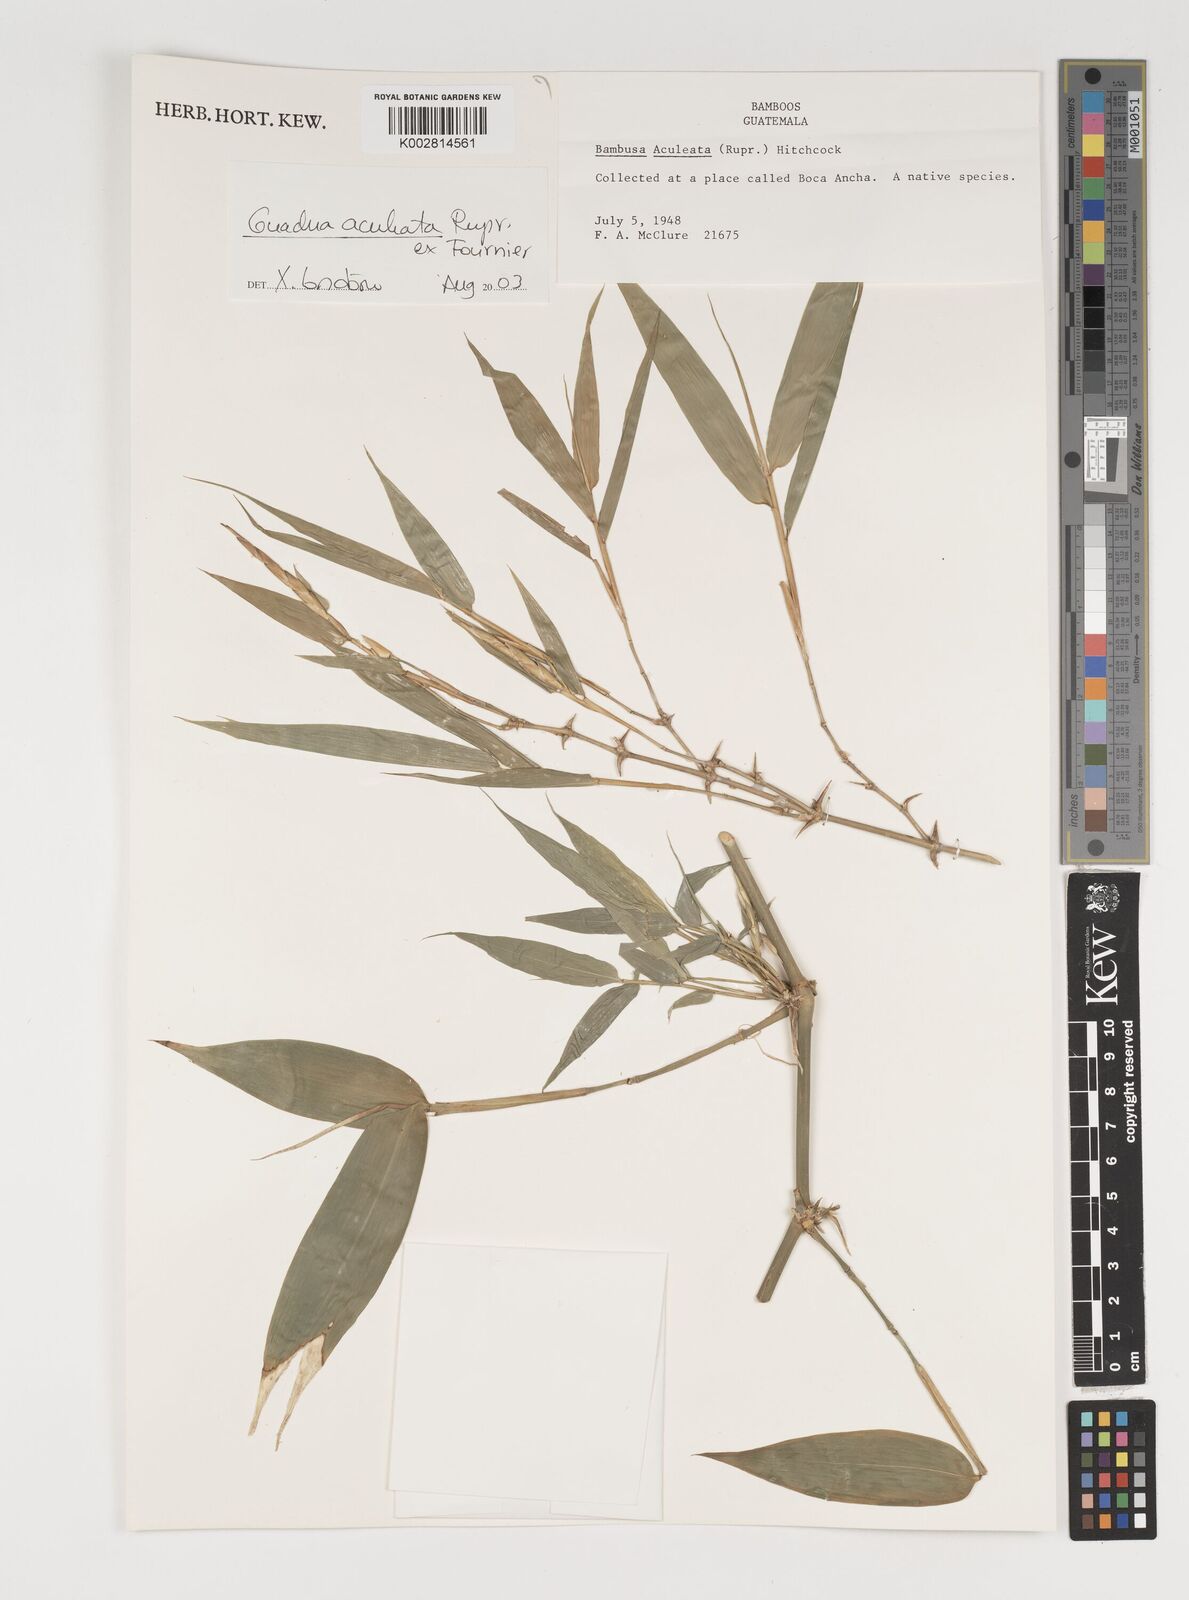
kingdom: Plantae
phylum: Tracheophyta
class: Liliopsida
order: Poales
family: Poaceae
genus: Guadua
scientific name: Guadua aculeata
